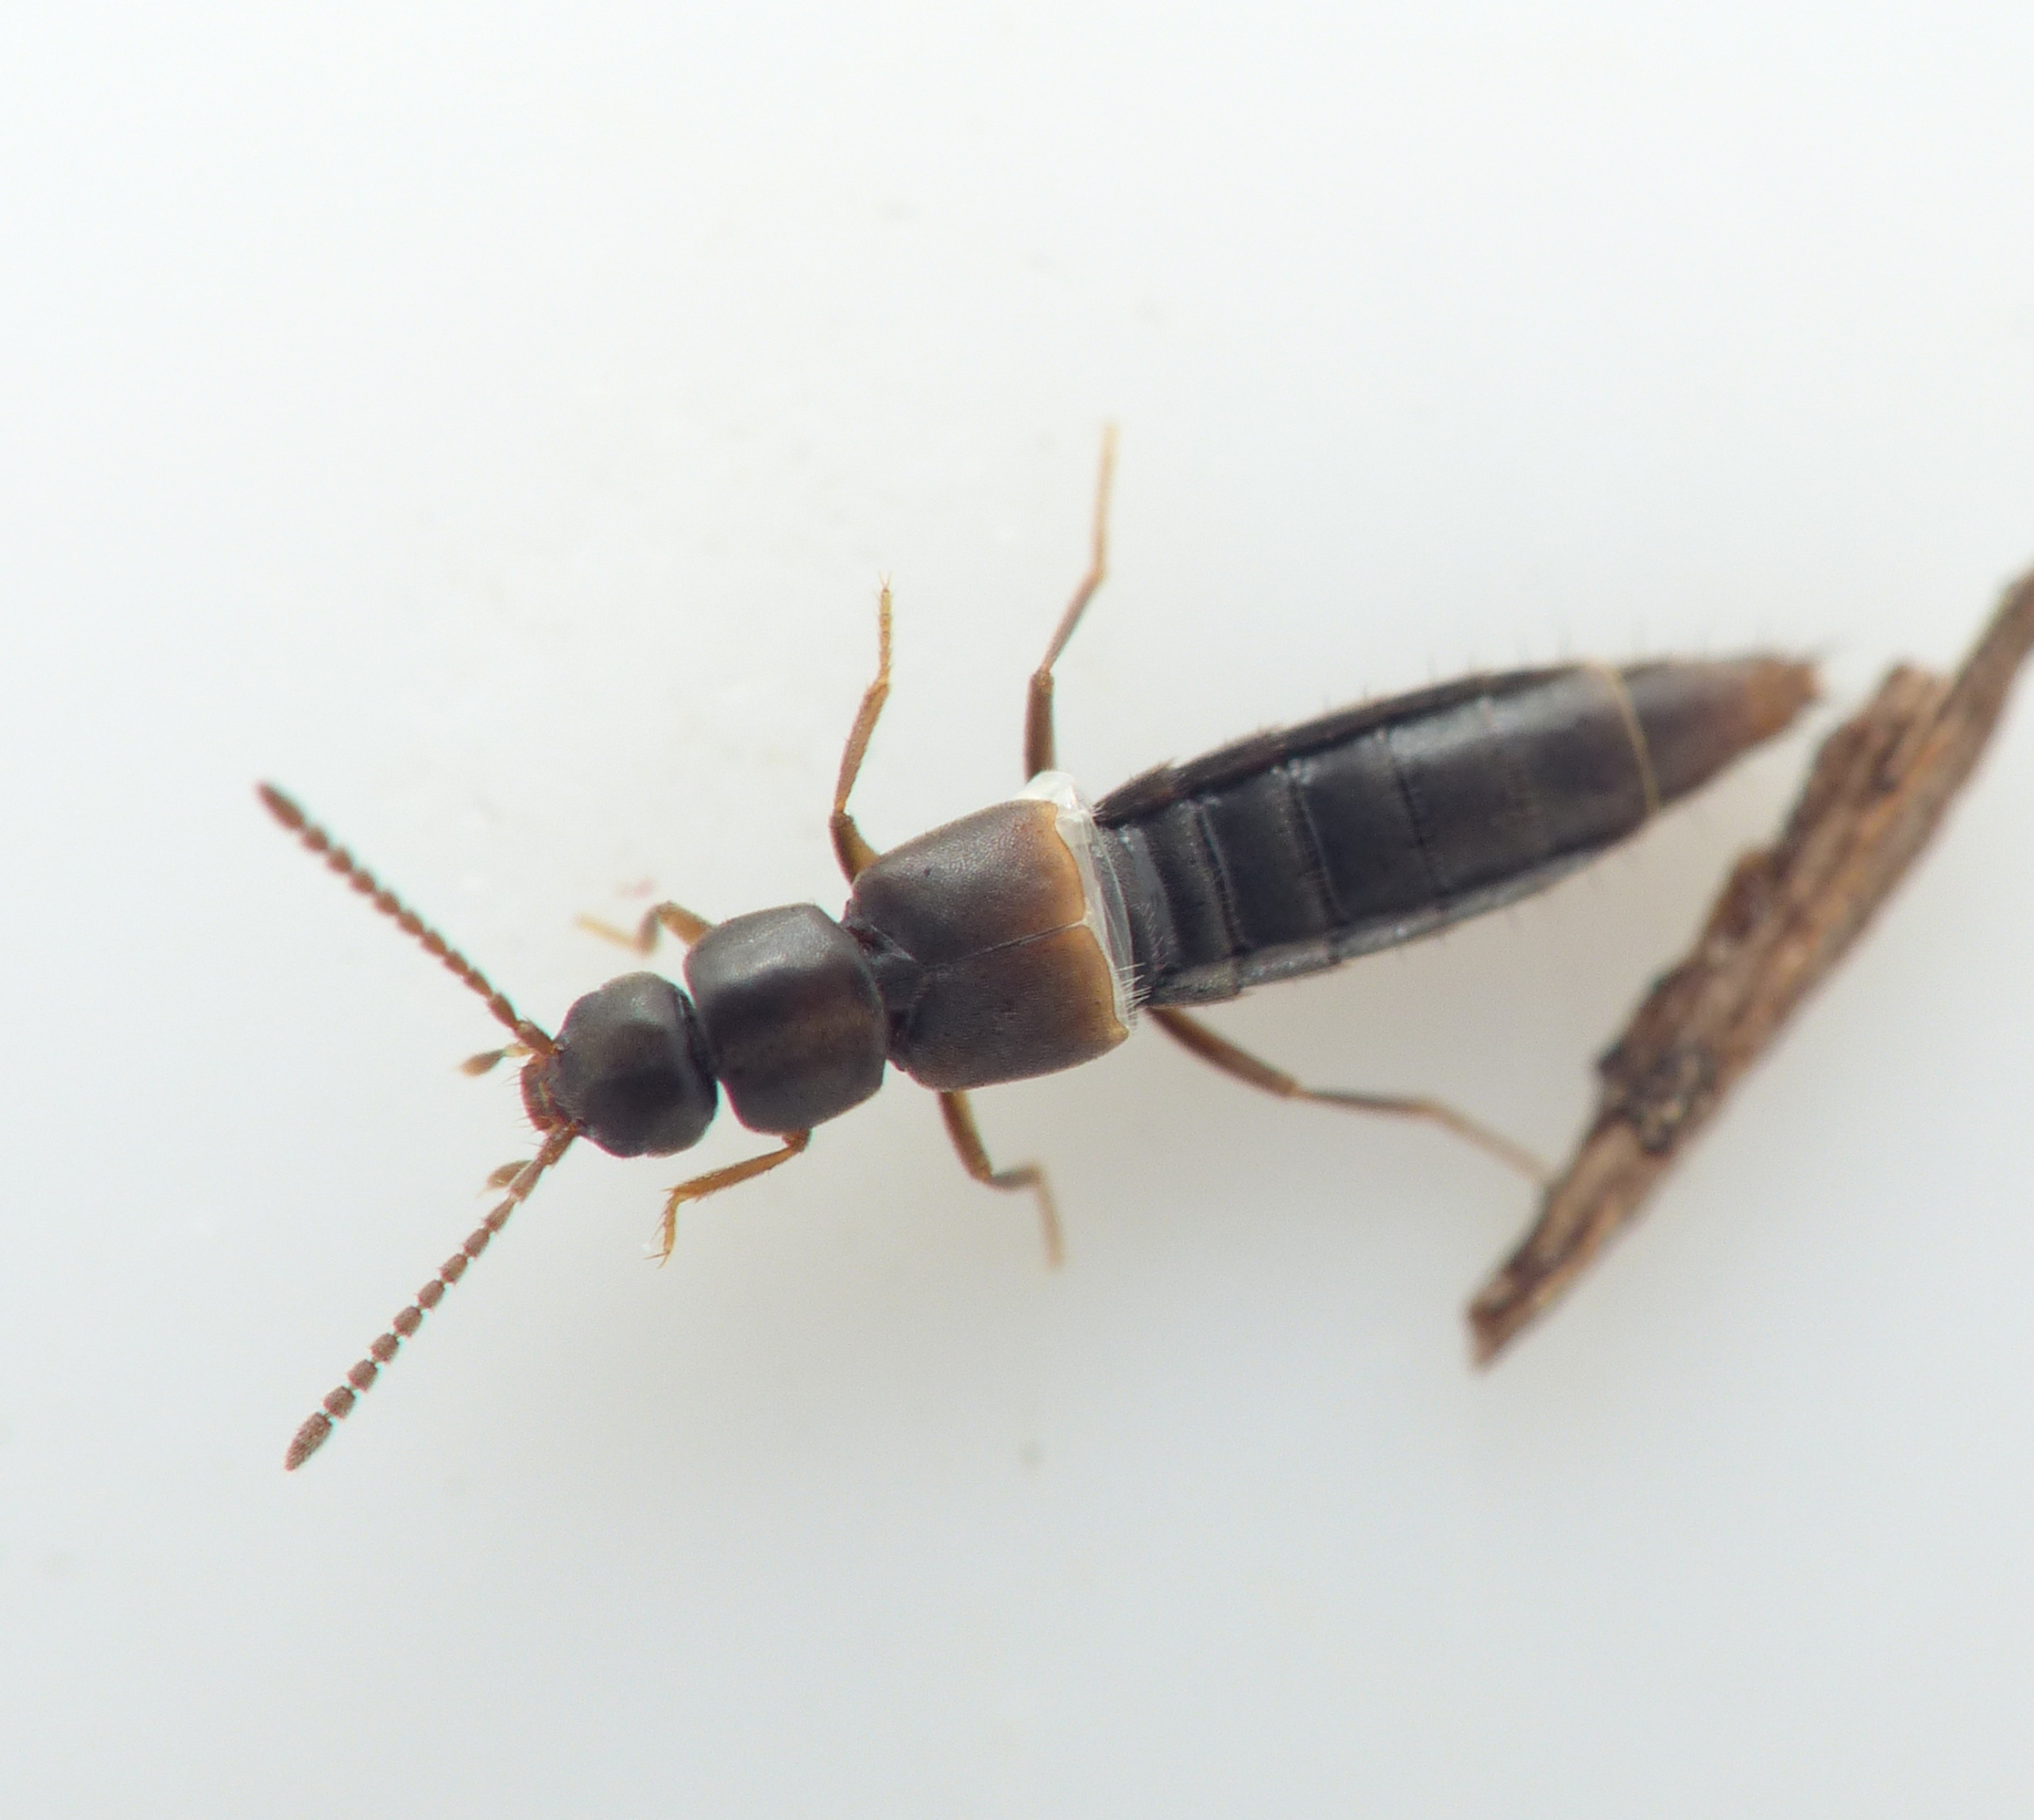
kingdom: Animalia
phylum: Arthropoda
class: Insecta
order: Coleoptera
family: Staphylinidae
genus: Dacrila
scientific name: Dacrila fallax
